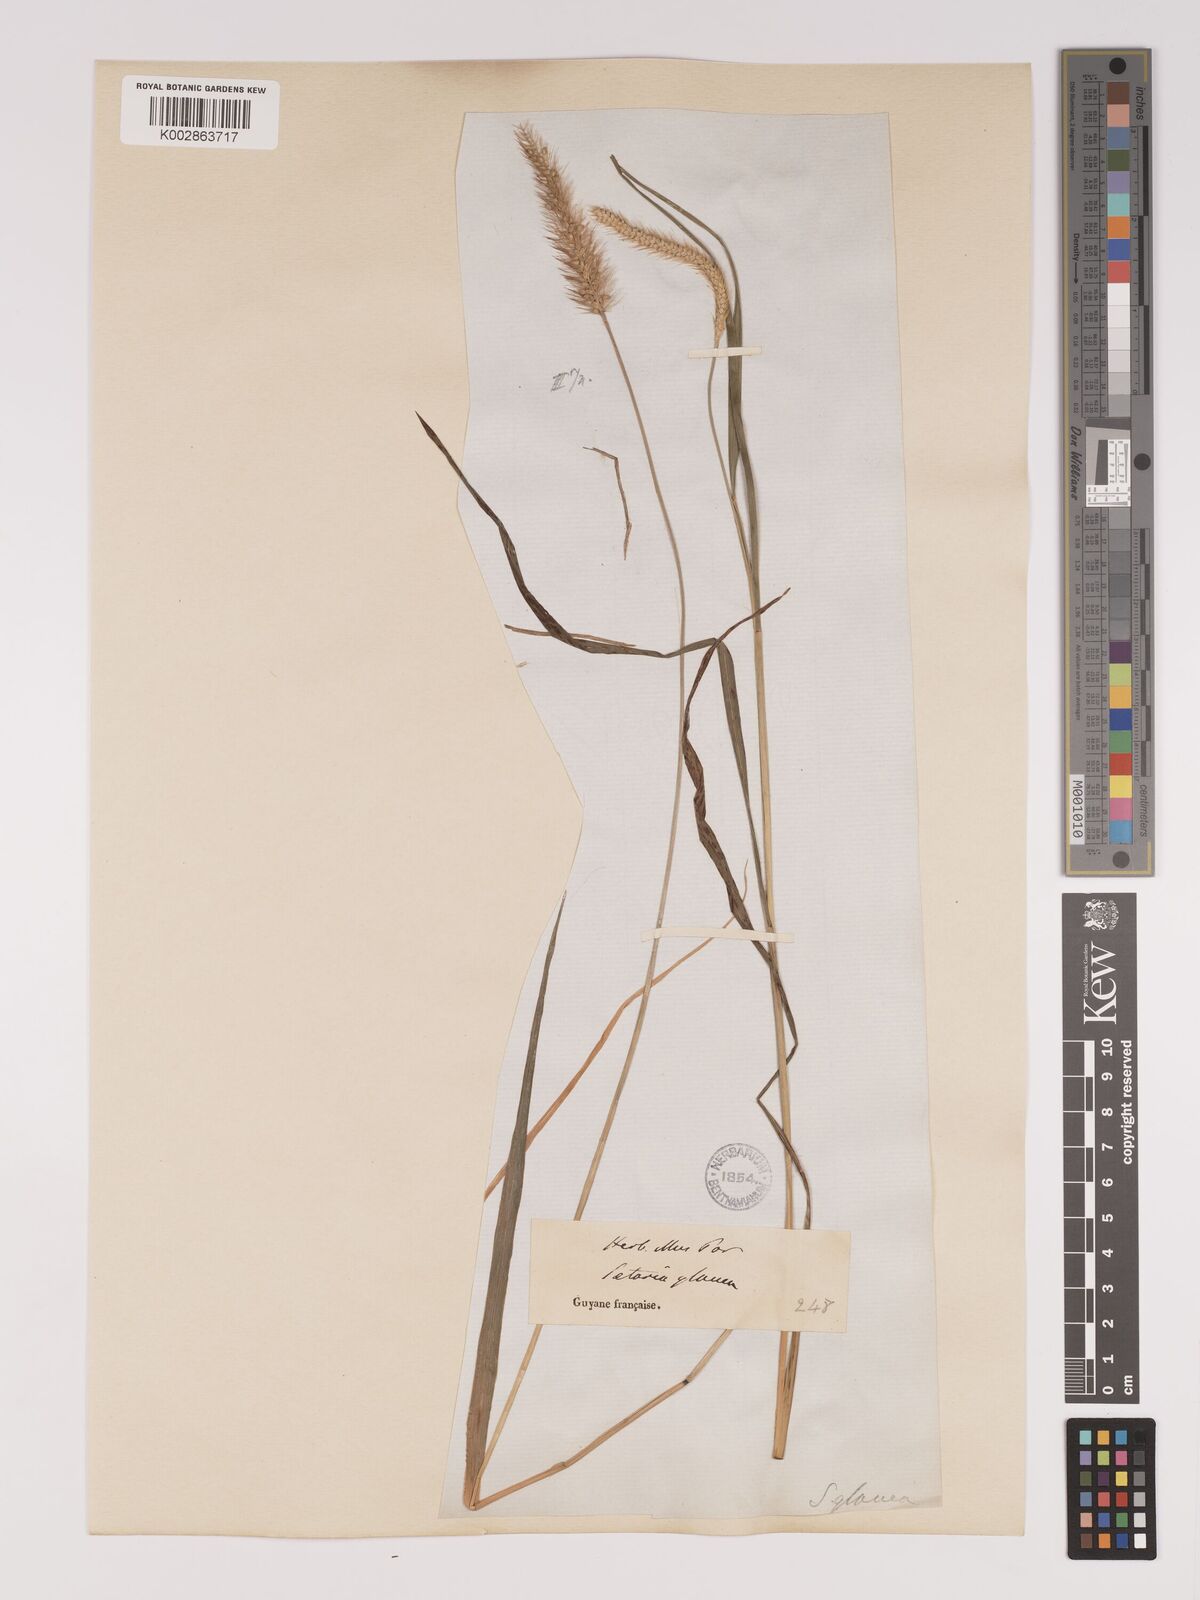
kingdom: Plantae
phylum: Tracheophyta
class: Liliopsida
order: Poales
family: Poaceae
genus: Setaria
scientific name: Setaria parviflora
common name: Knotroot bristle-grass
